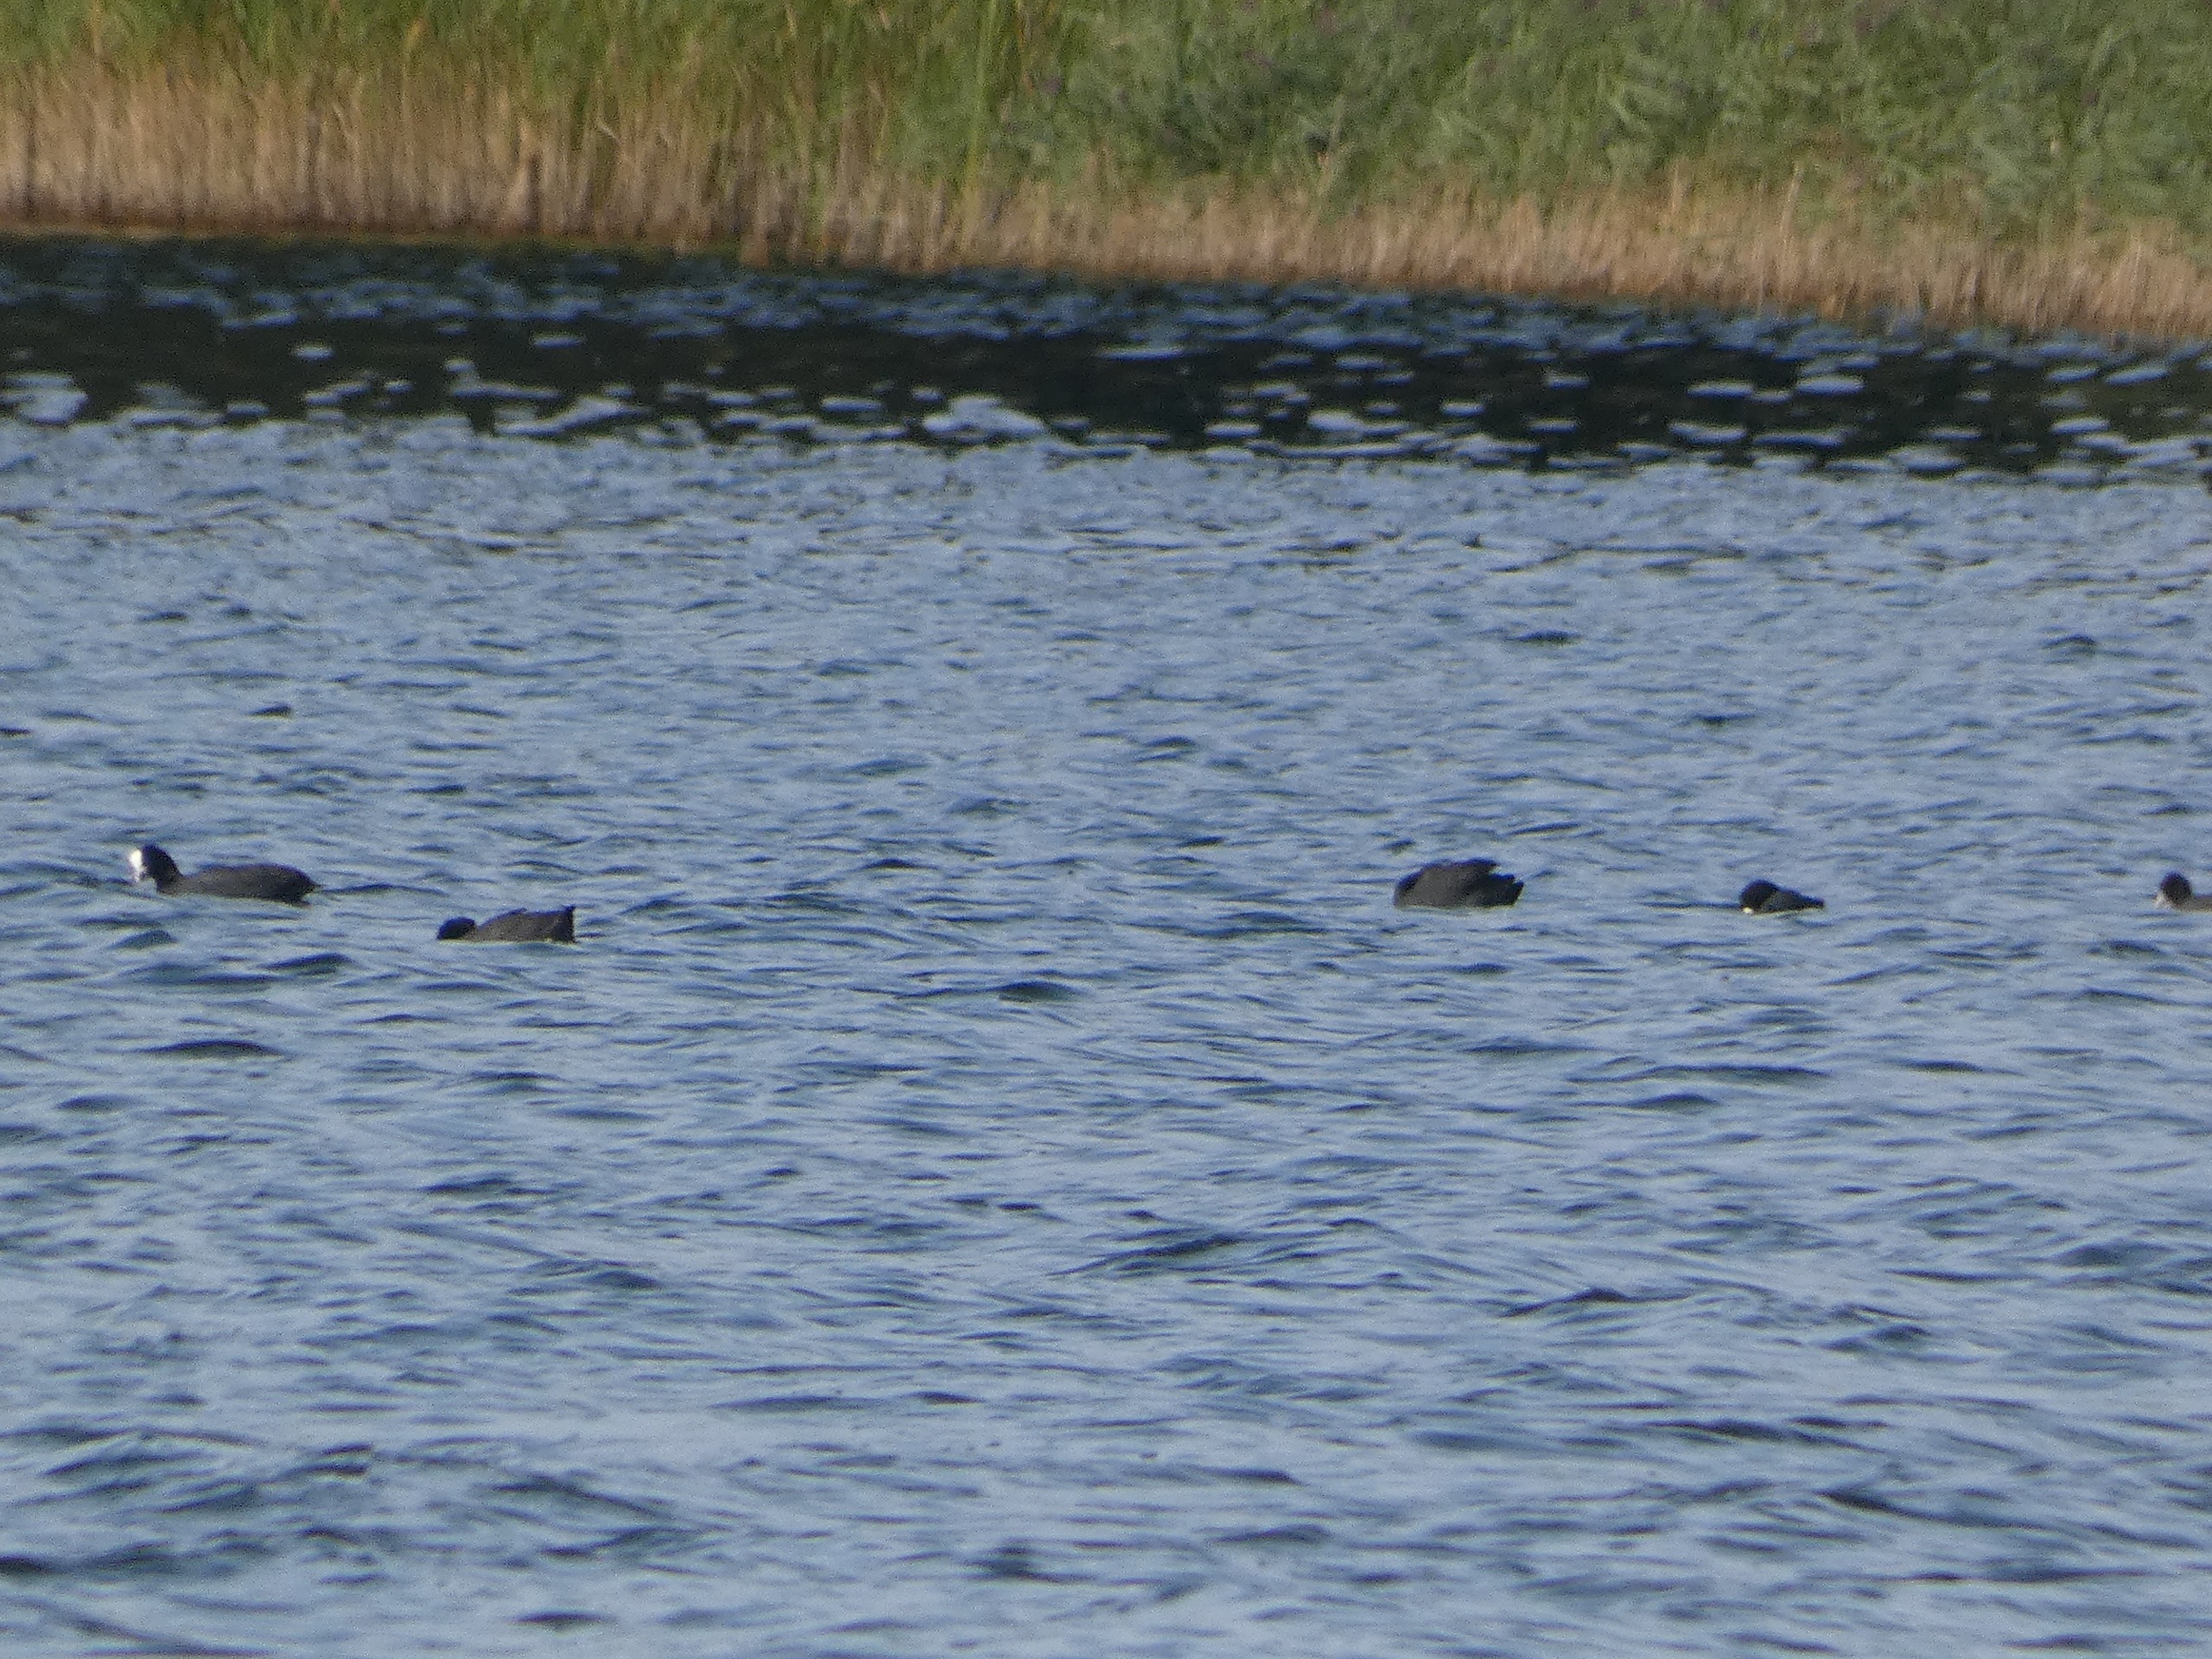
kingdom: Animalia
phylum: Chordata
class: Aves
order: Gruiformes
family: Rallidae
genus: Fulica
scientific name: Fulica atra
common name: Blishøne
